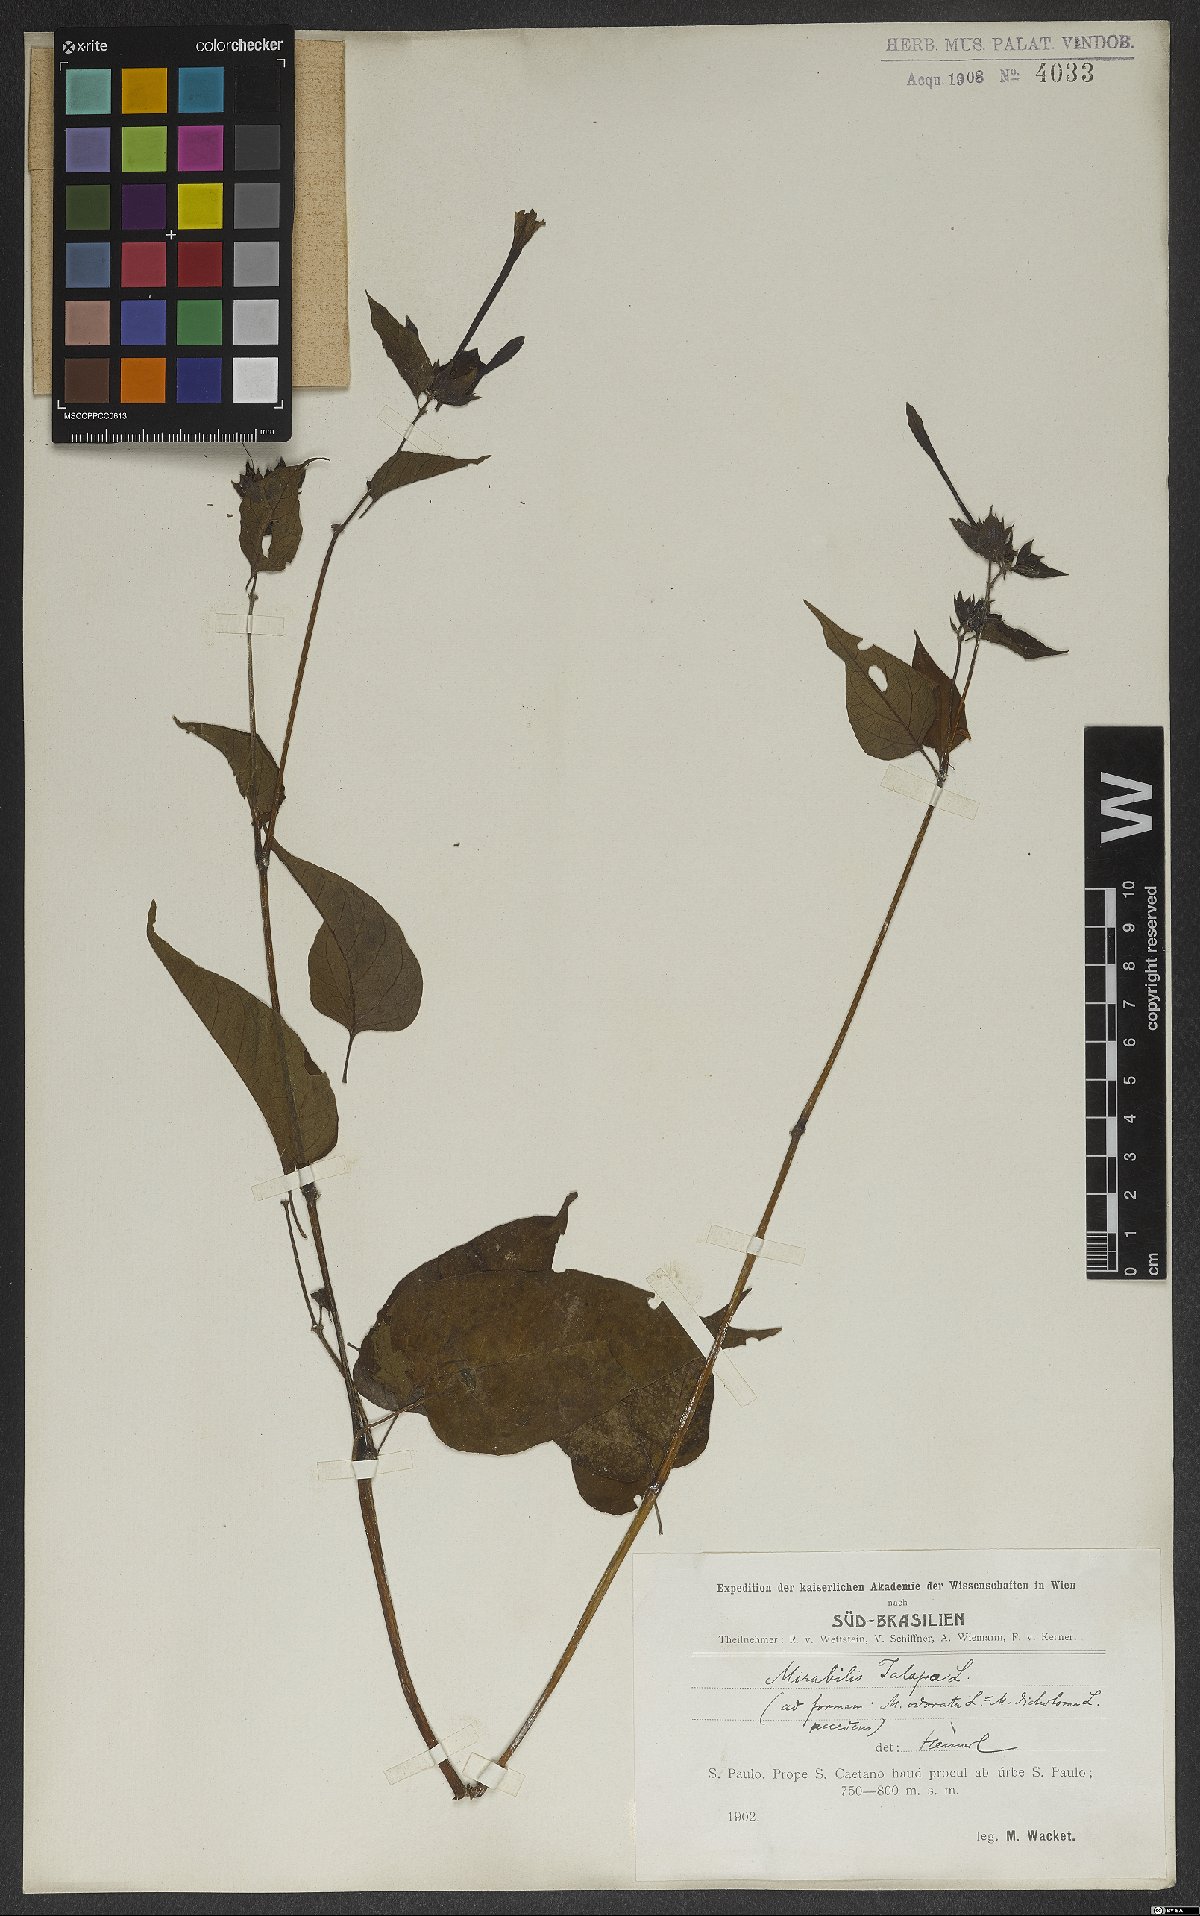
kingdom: Plantae
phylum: Tracheophyta
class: Magnoliopsida
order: Caryophyllales
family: Nyctaginaceae
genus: Mirabilis
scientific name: Mirabilis jalapa
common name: Marvel-of-peru
